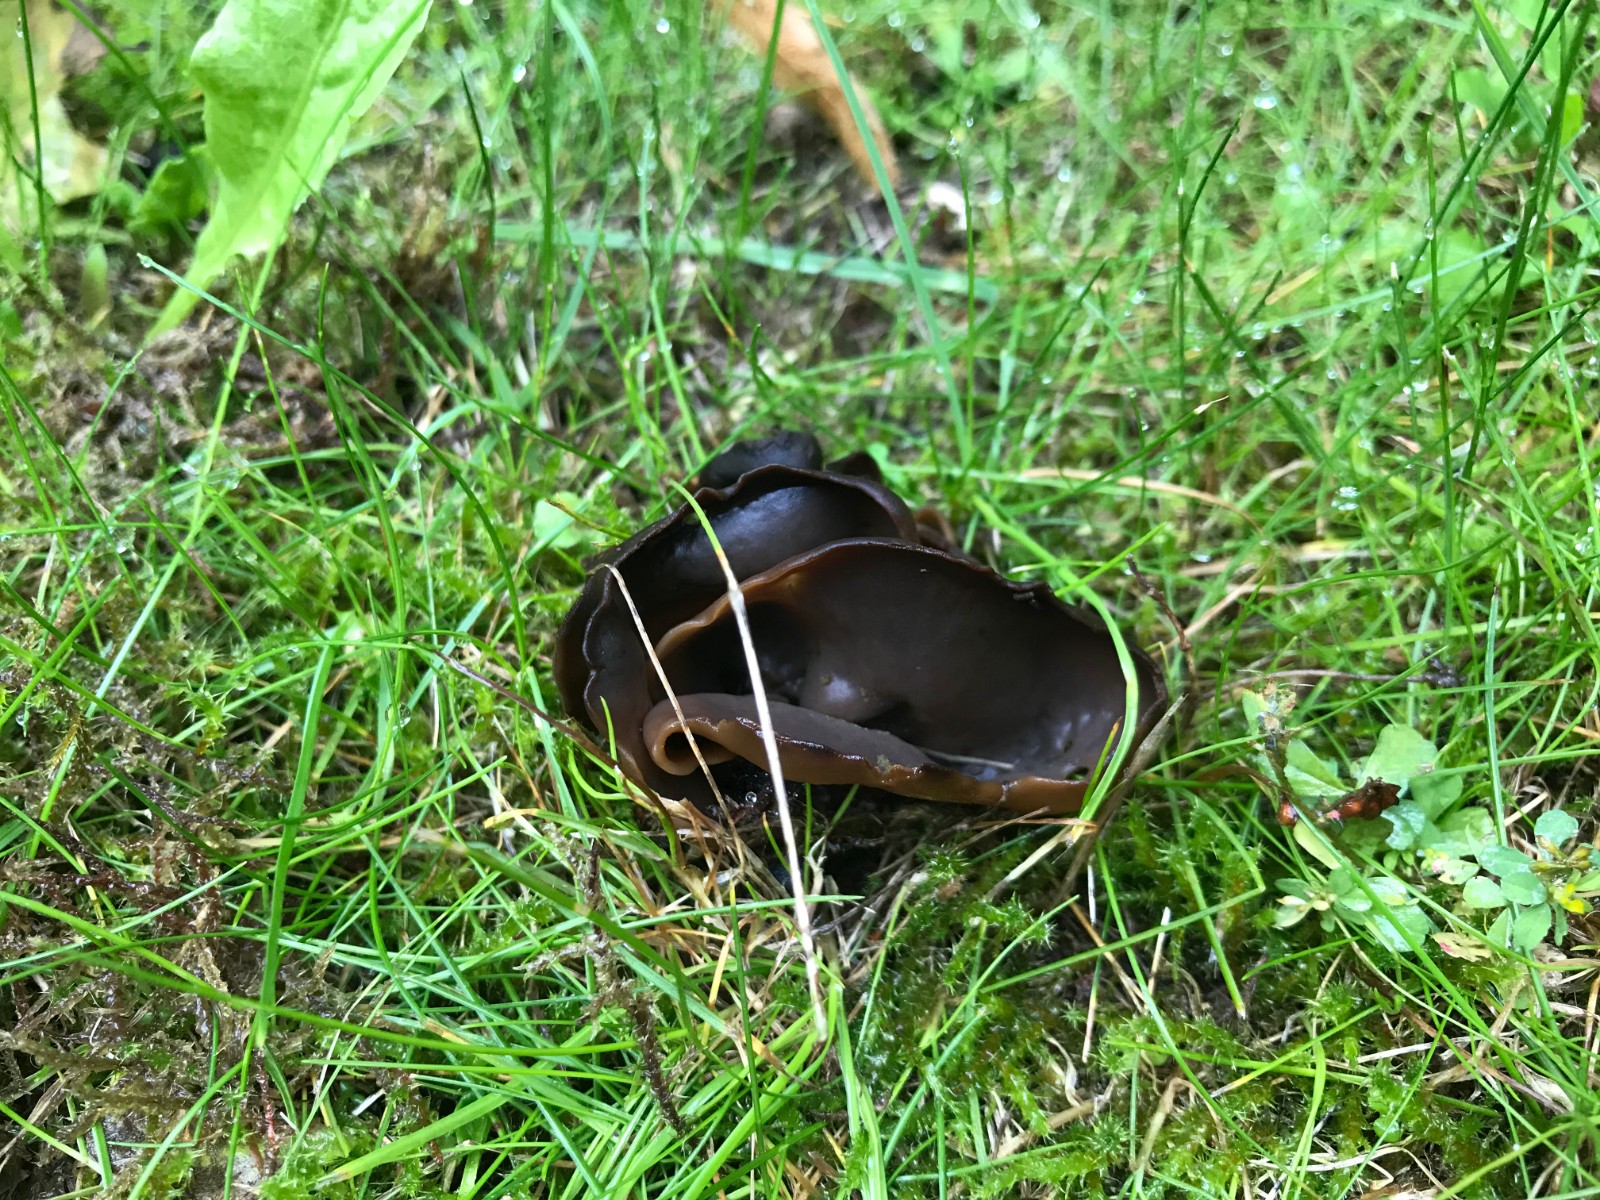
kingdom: Fungi
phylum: Ascomycota
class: Pezizomycetes
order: Pezizales
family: Otideaceae
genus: Otidea
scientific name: Otidea platyspora
